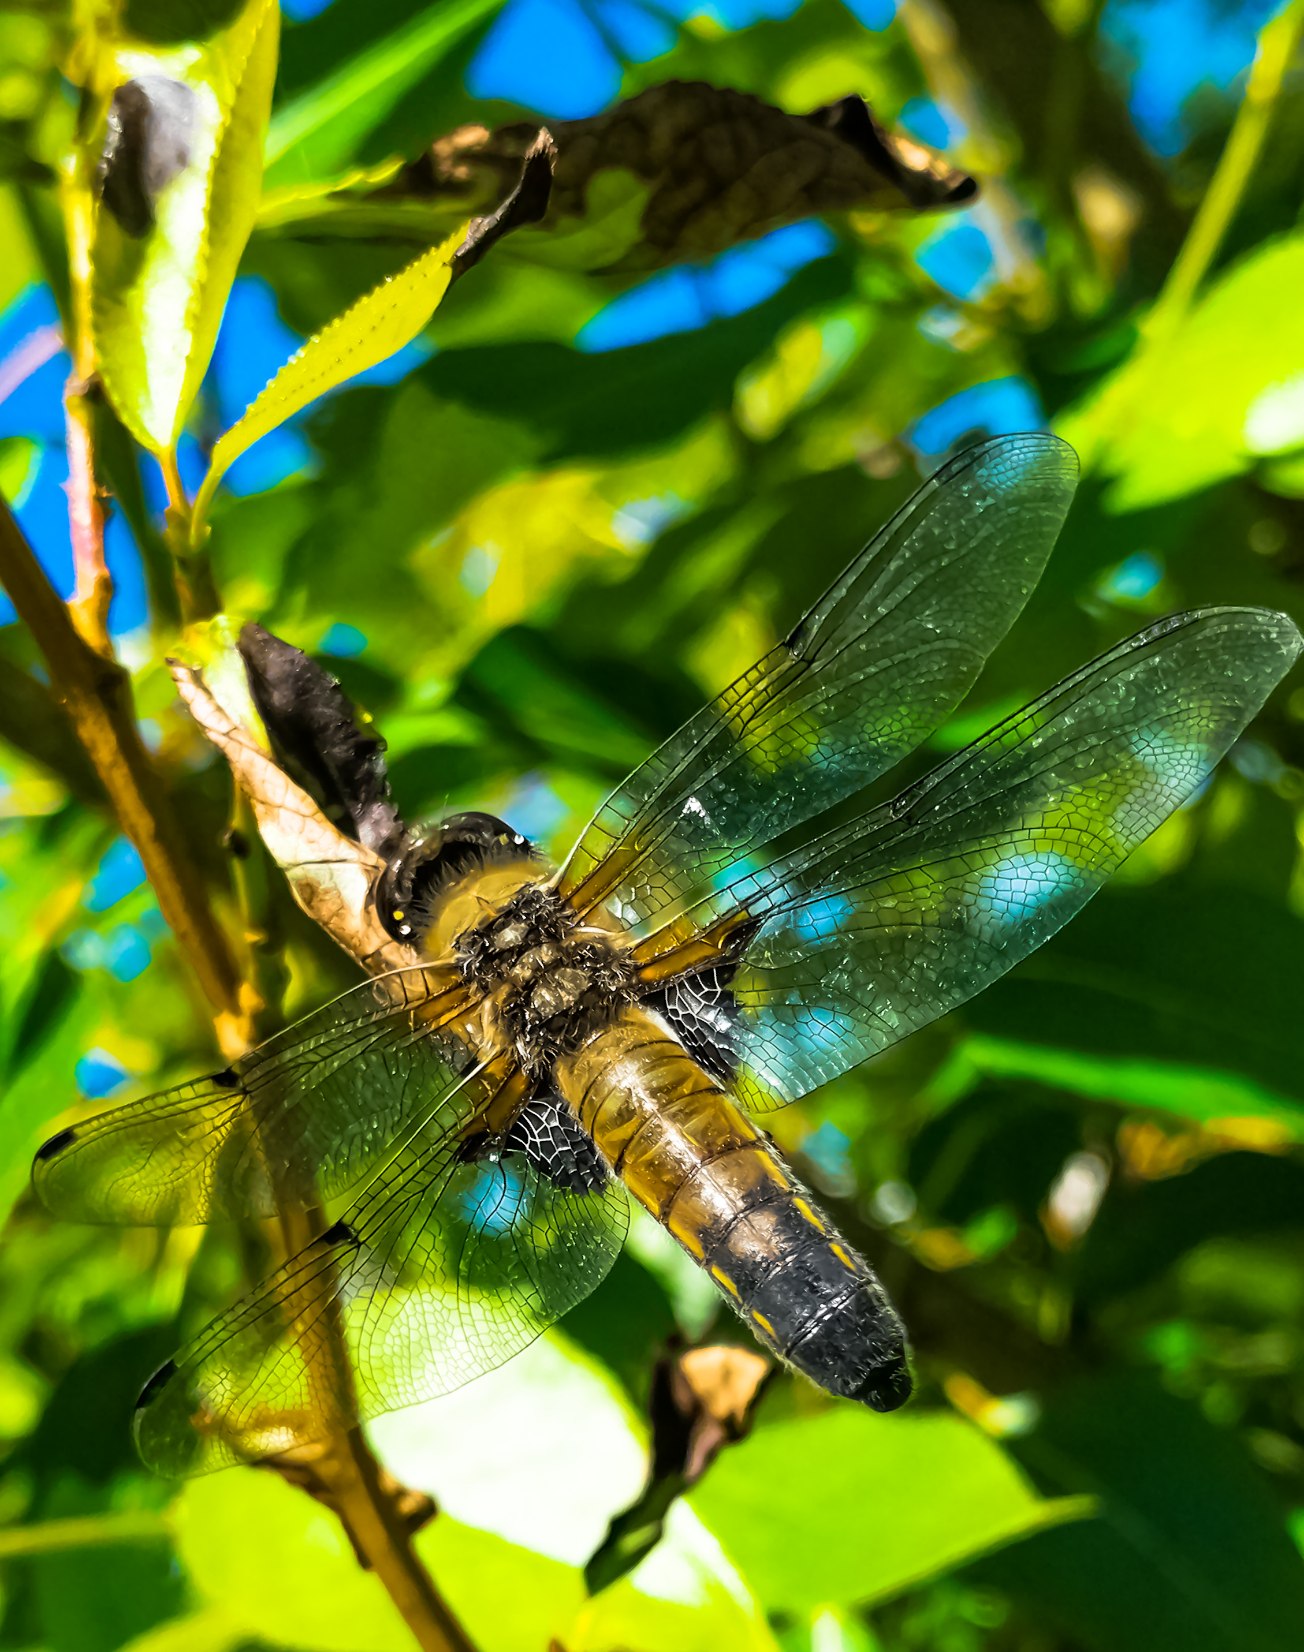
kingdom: Animalia
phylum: Arthropoda
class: Insecta
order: Odonata
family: Libellulidae
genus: Libellula
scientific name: Libellula quadrimaculata
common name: Fireplettet libel
